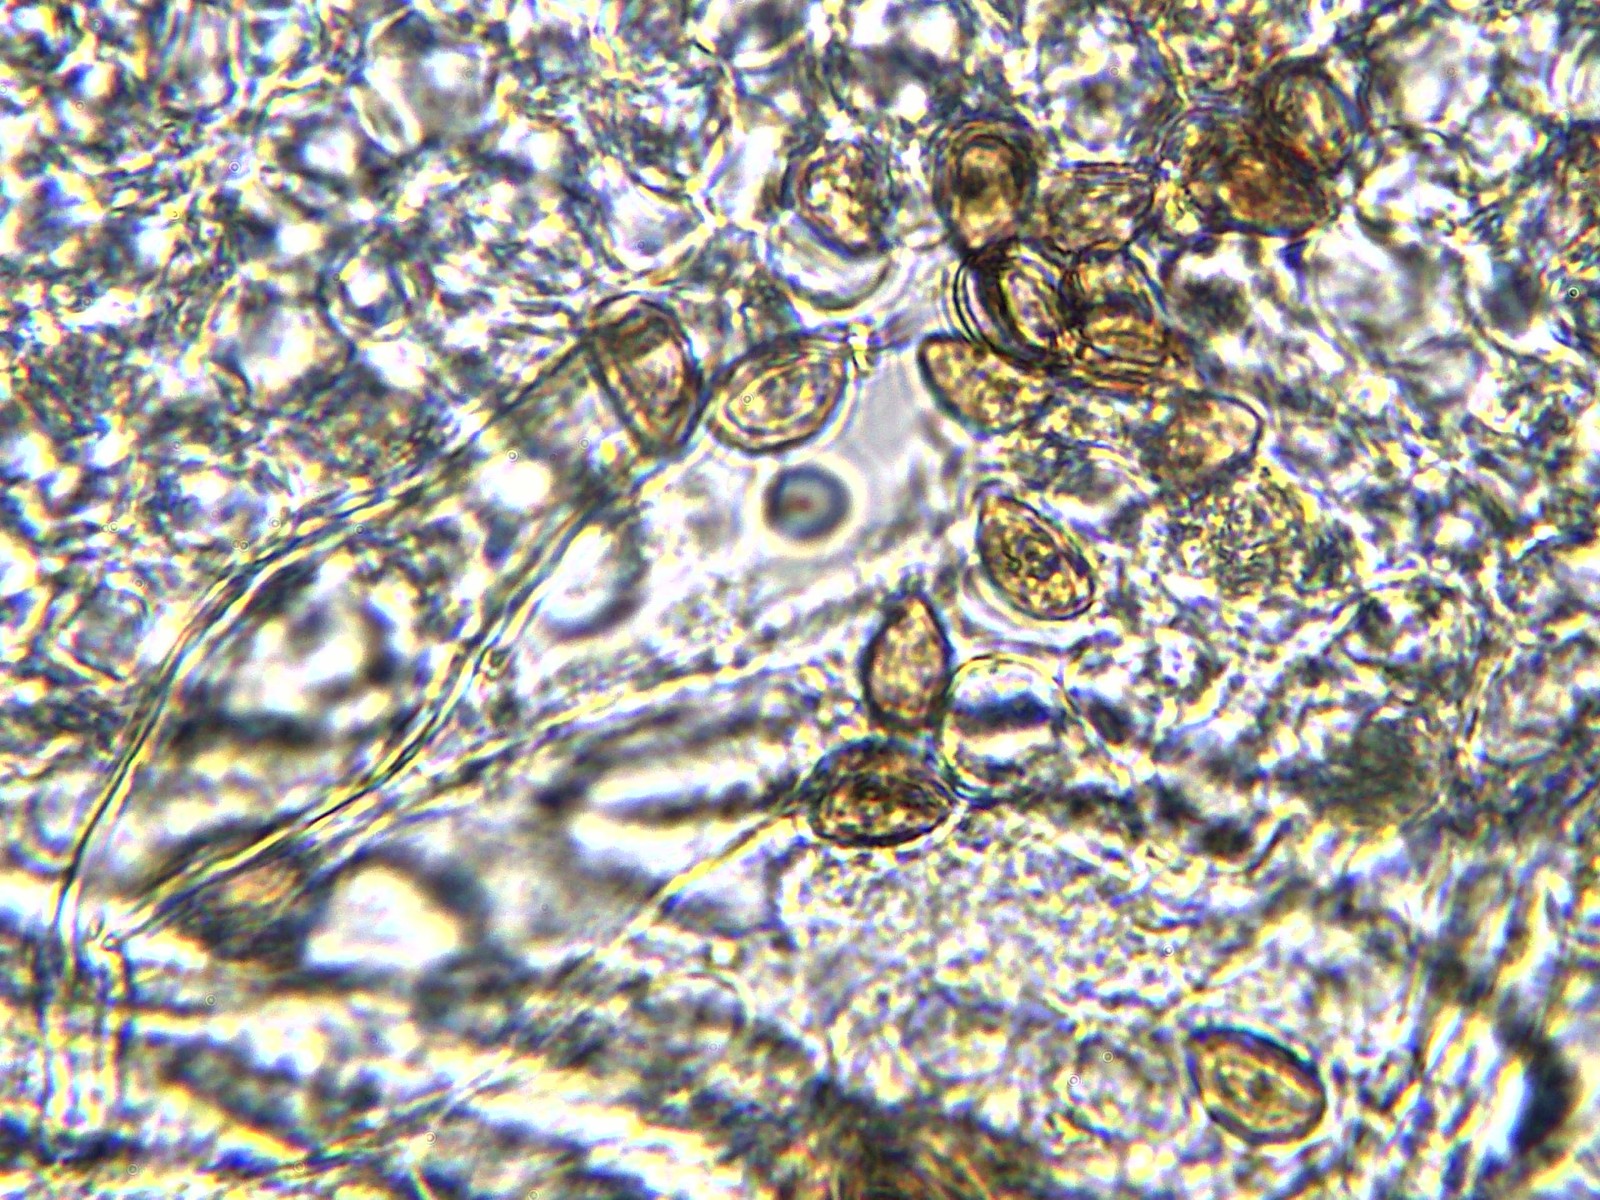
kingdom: Fungi
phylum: Basidiomycota
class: Agaricomycetes
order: Agaricales
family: Inocybaceae
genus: Inocybe
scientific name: Inocybe
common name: trævlhat
